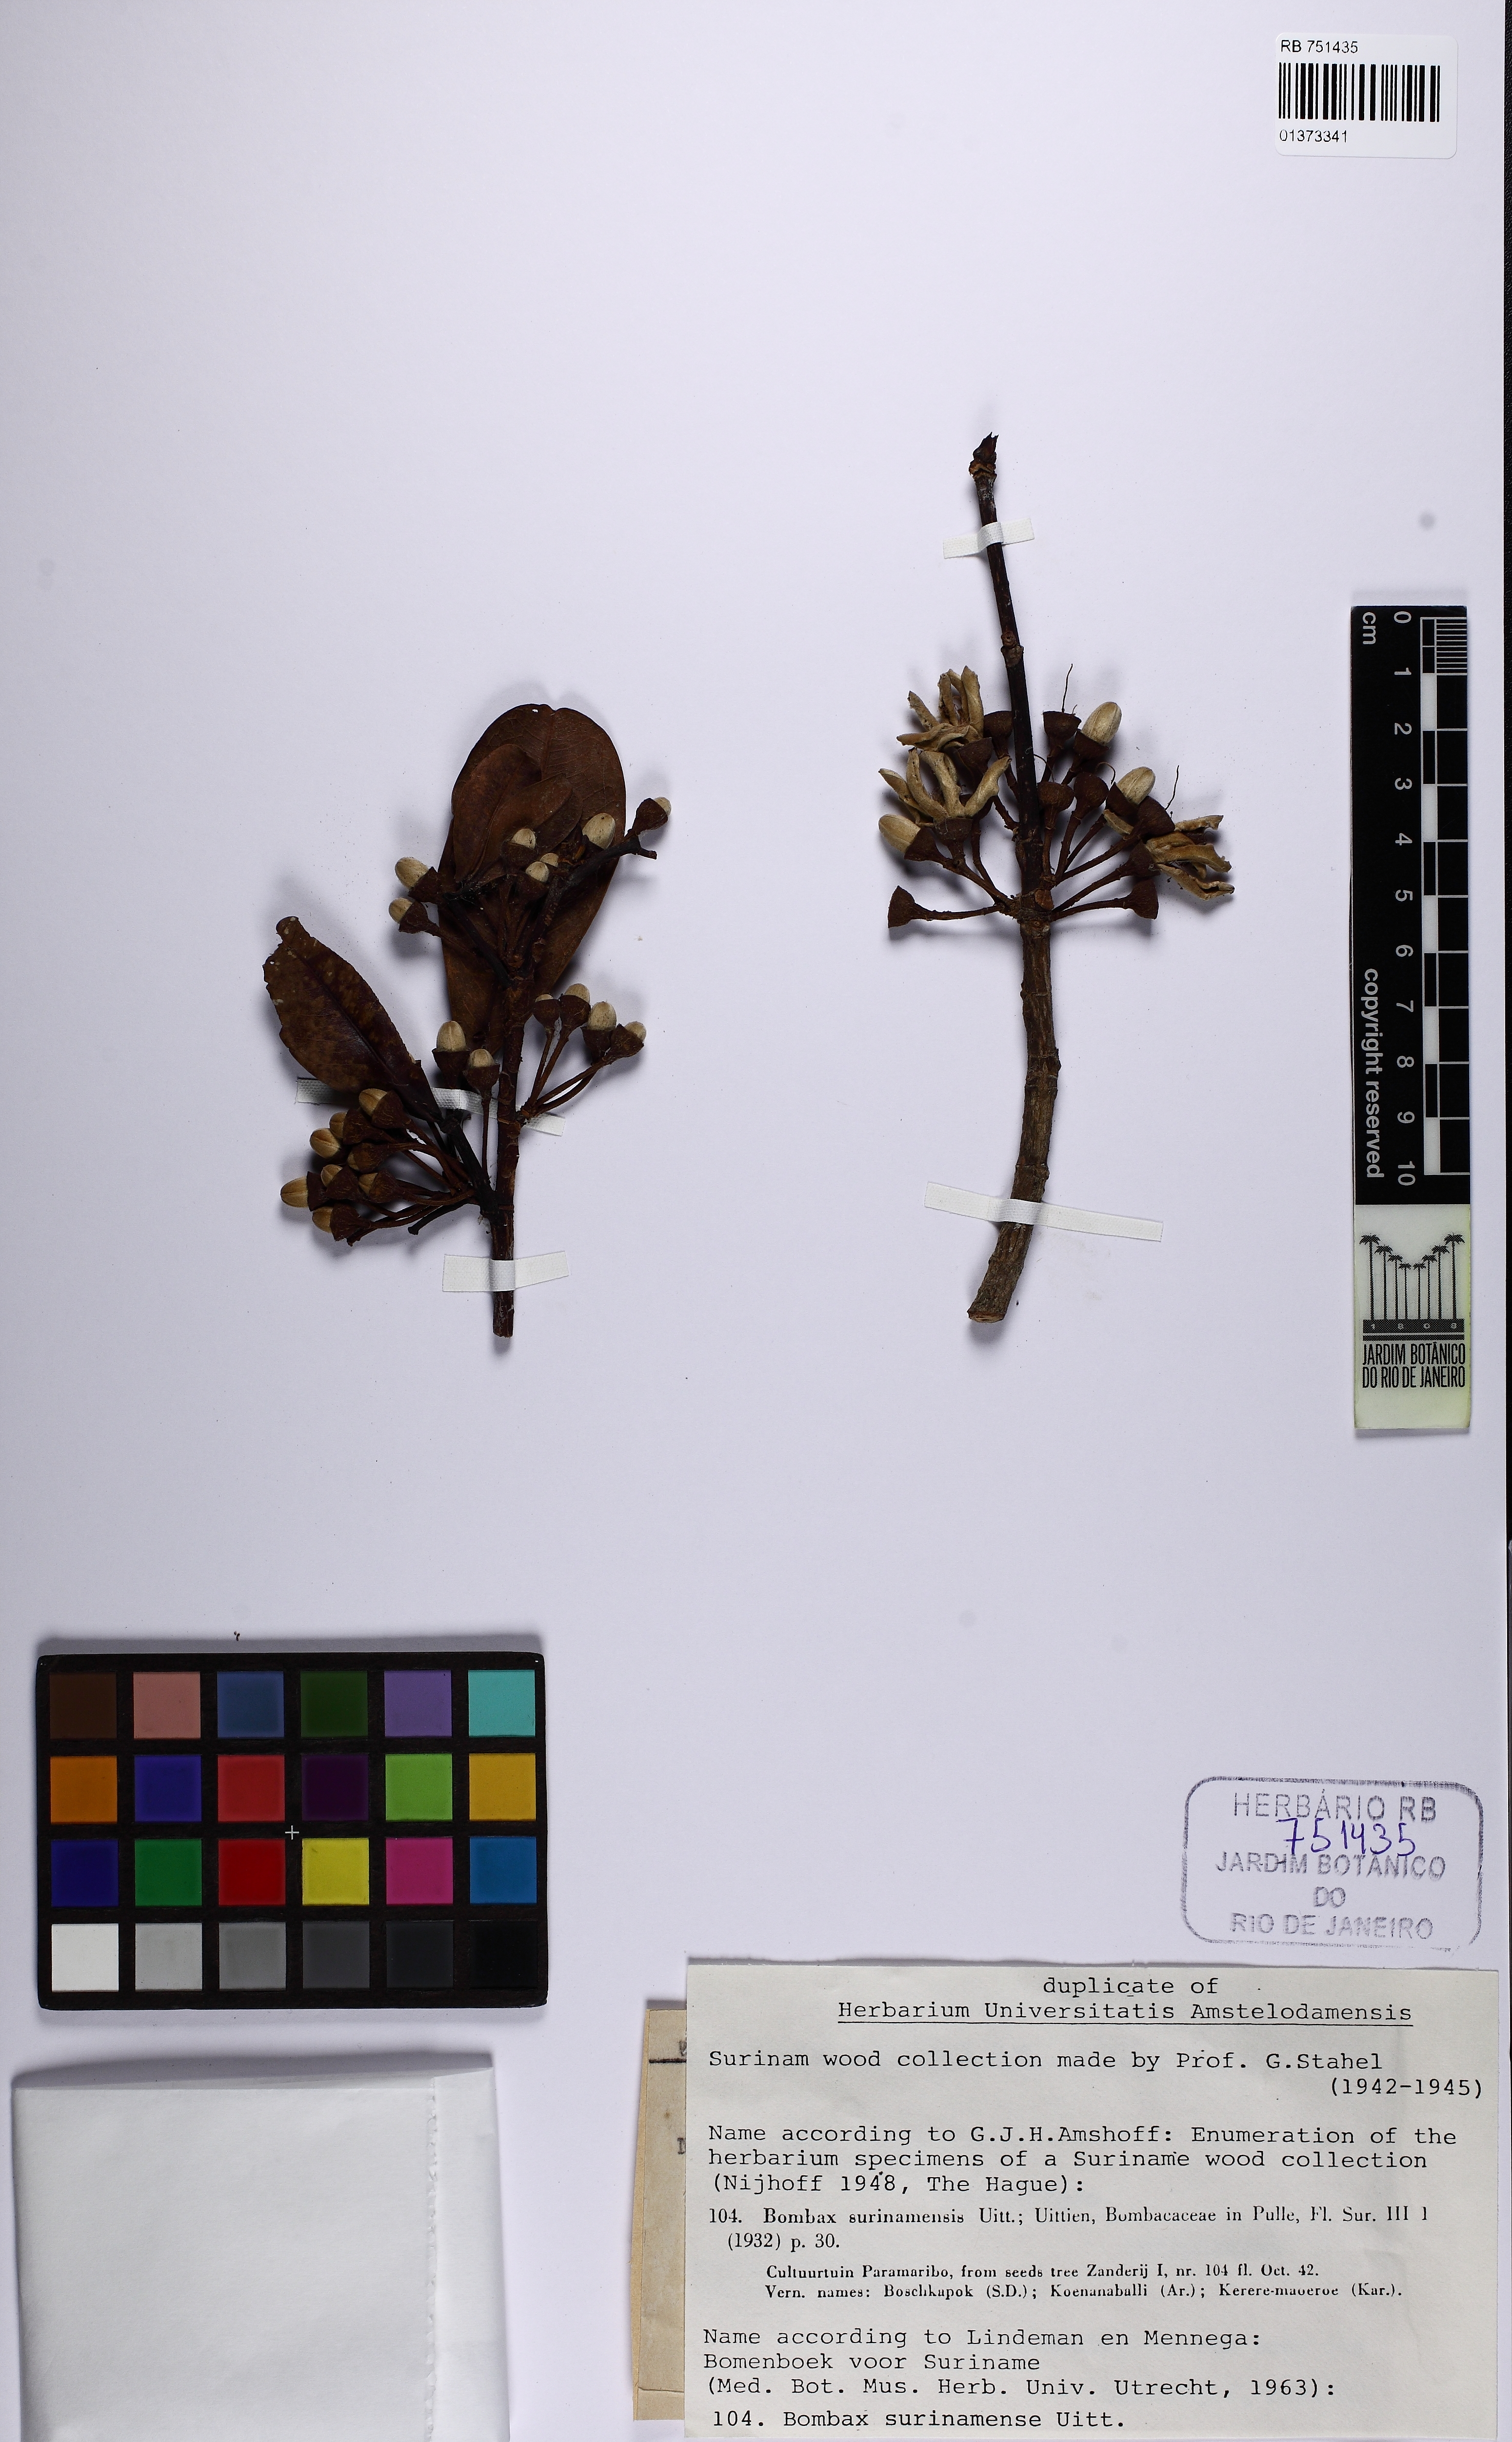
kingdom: Plantae
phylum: Tracheophyta
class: Magnoliopsida
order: Malvales
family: Malvaceae
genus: Eriotheca
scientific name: Eriotheca surinamensis
